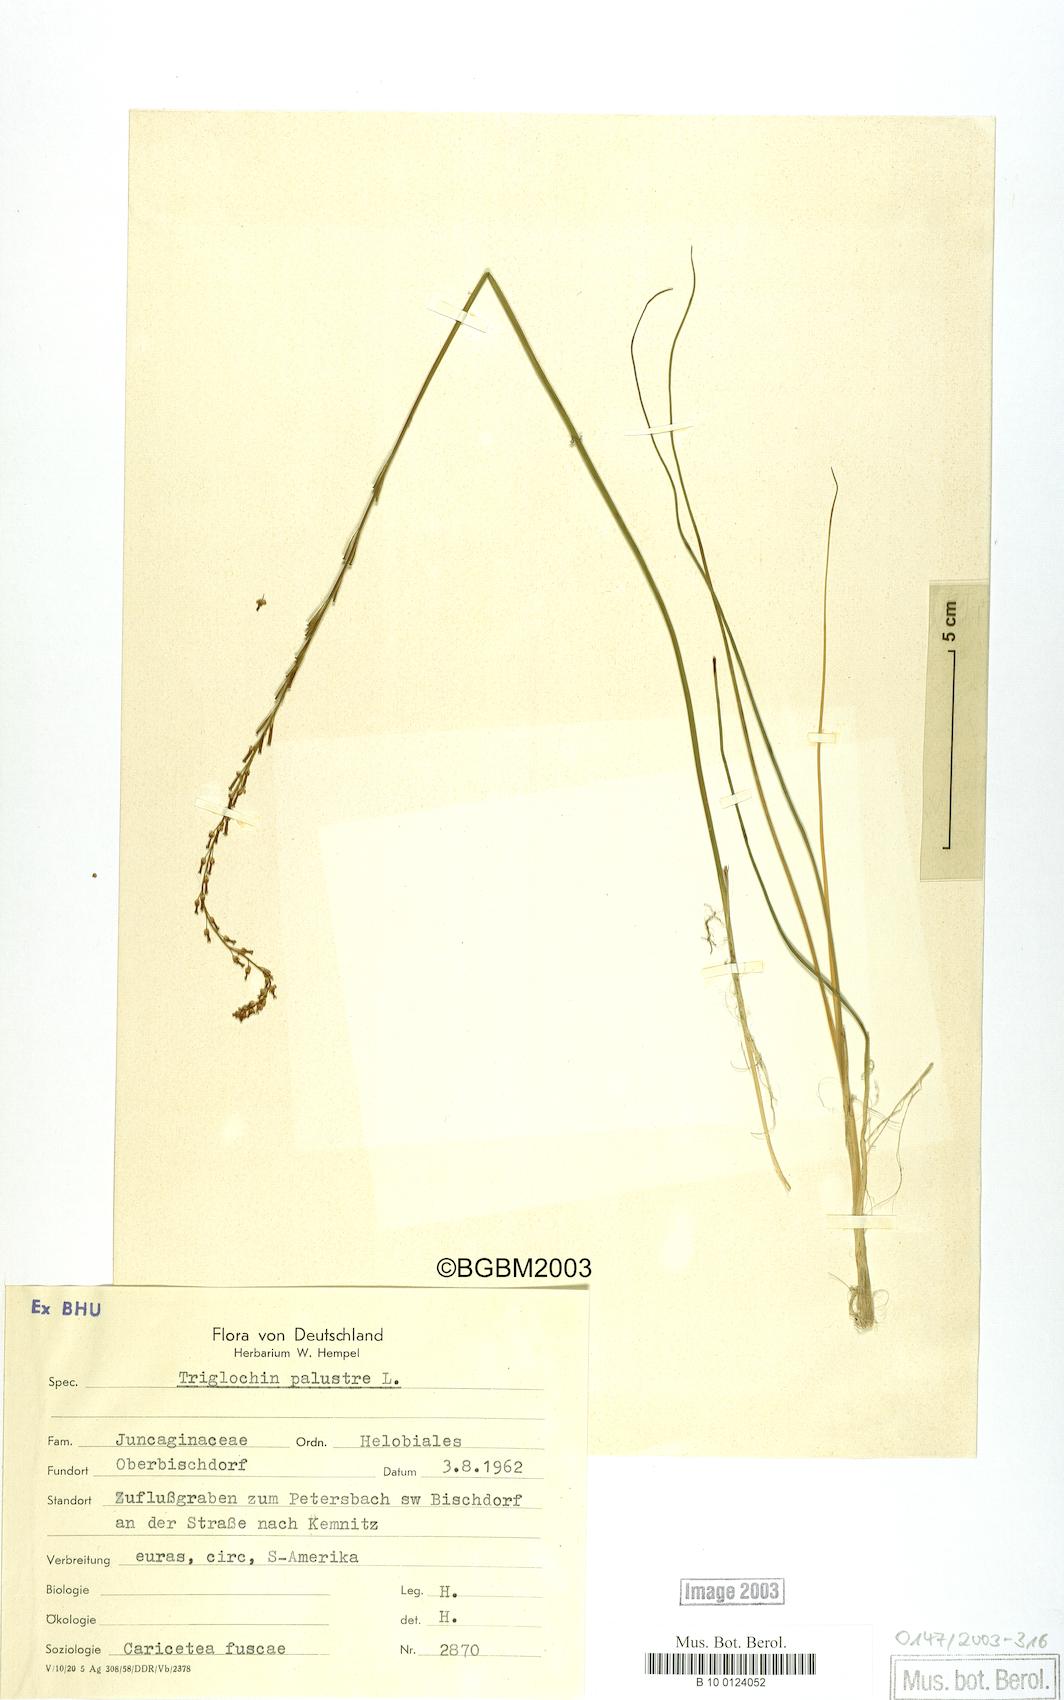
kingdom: Plantae
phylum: Tracheophyta
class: Liliopsida
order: Alismatales
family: Juncaginaceae
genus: Triglochin
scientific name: Triglochin palustris
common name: Marsh arrowgrass
